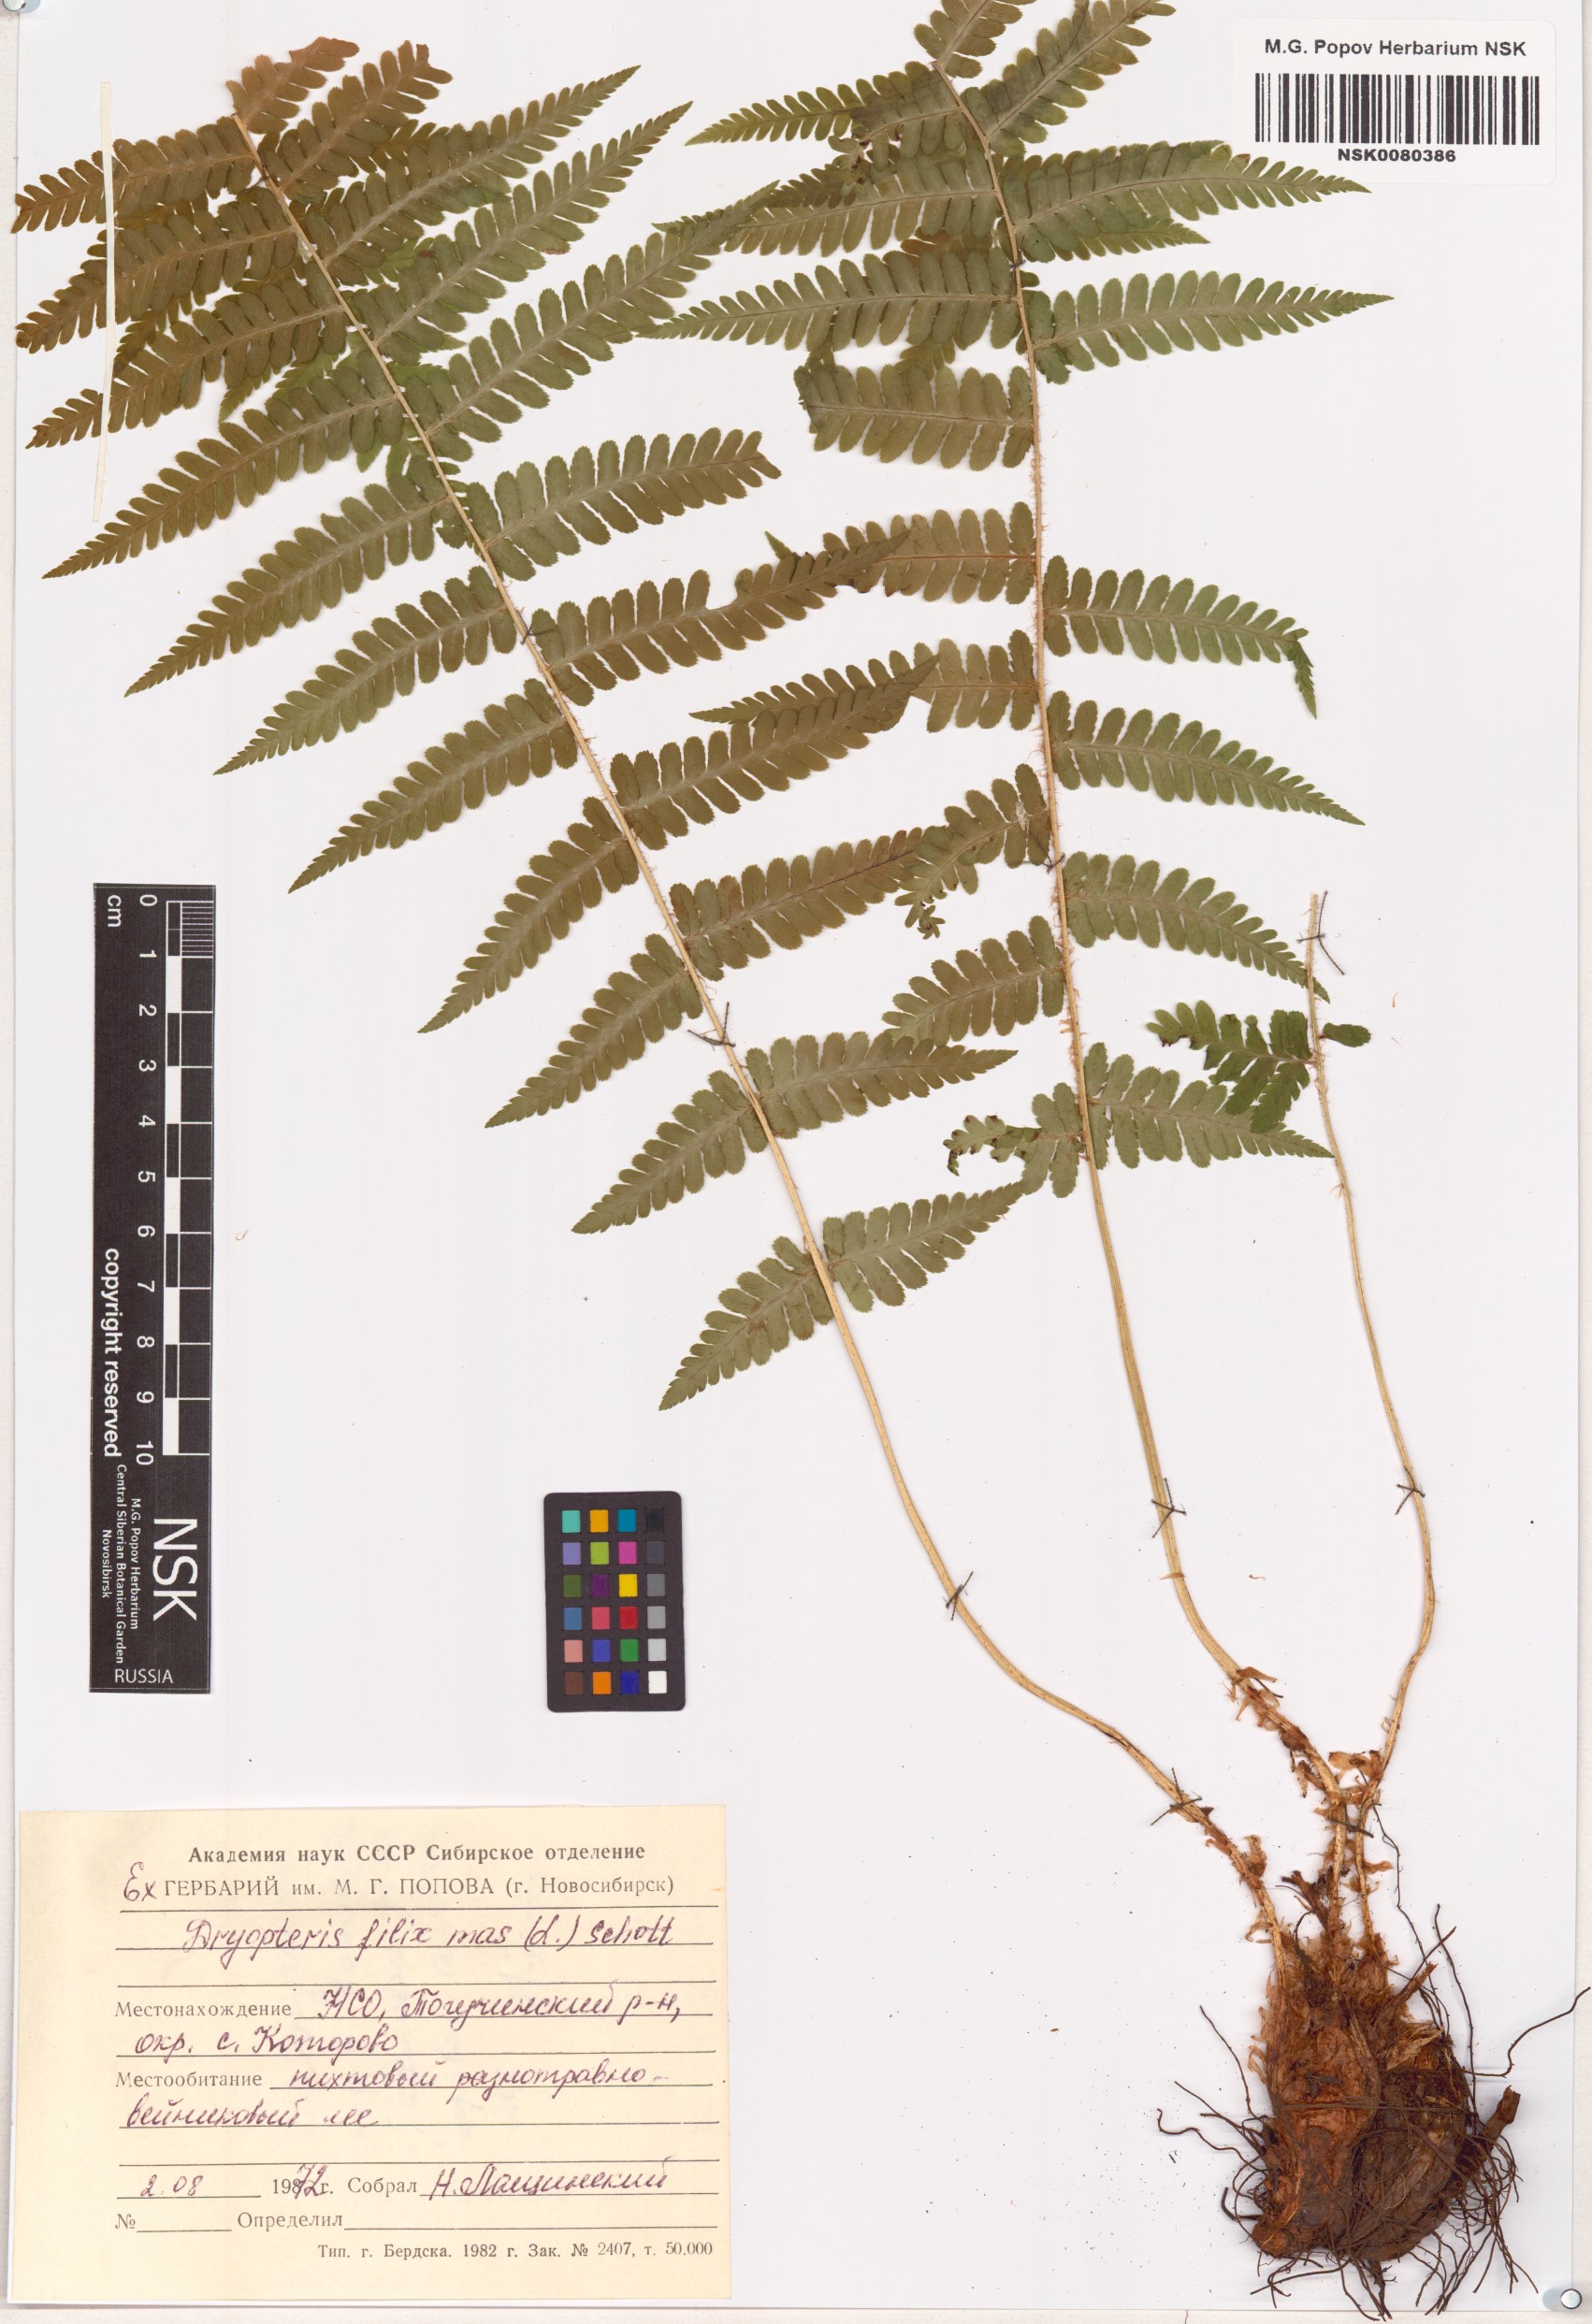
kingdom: Plantae
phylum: Tracheophyta
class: Polypodiopsida
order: Polypodiales
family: Dryopteridaceae
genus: Dryopteris
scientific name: Dryopteris filix-mas
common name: Male fern
